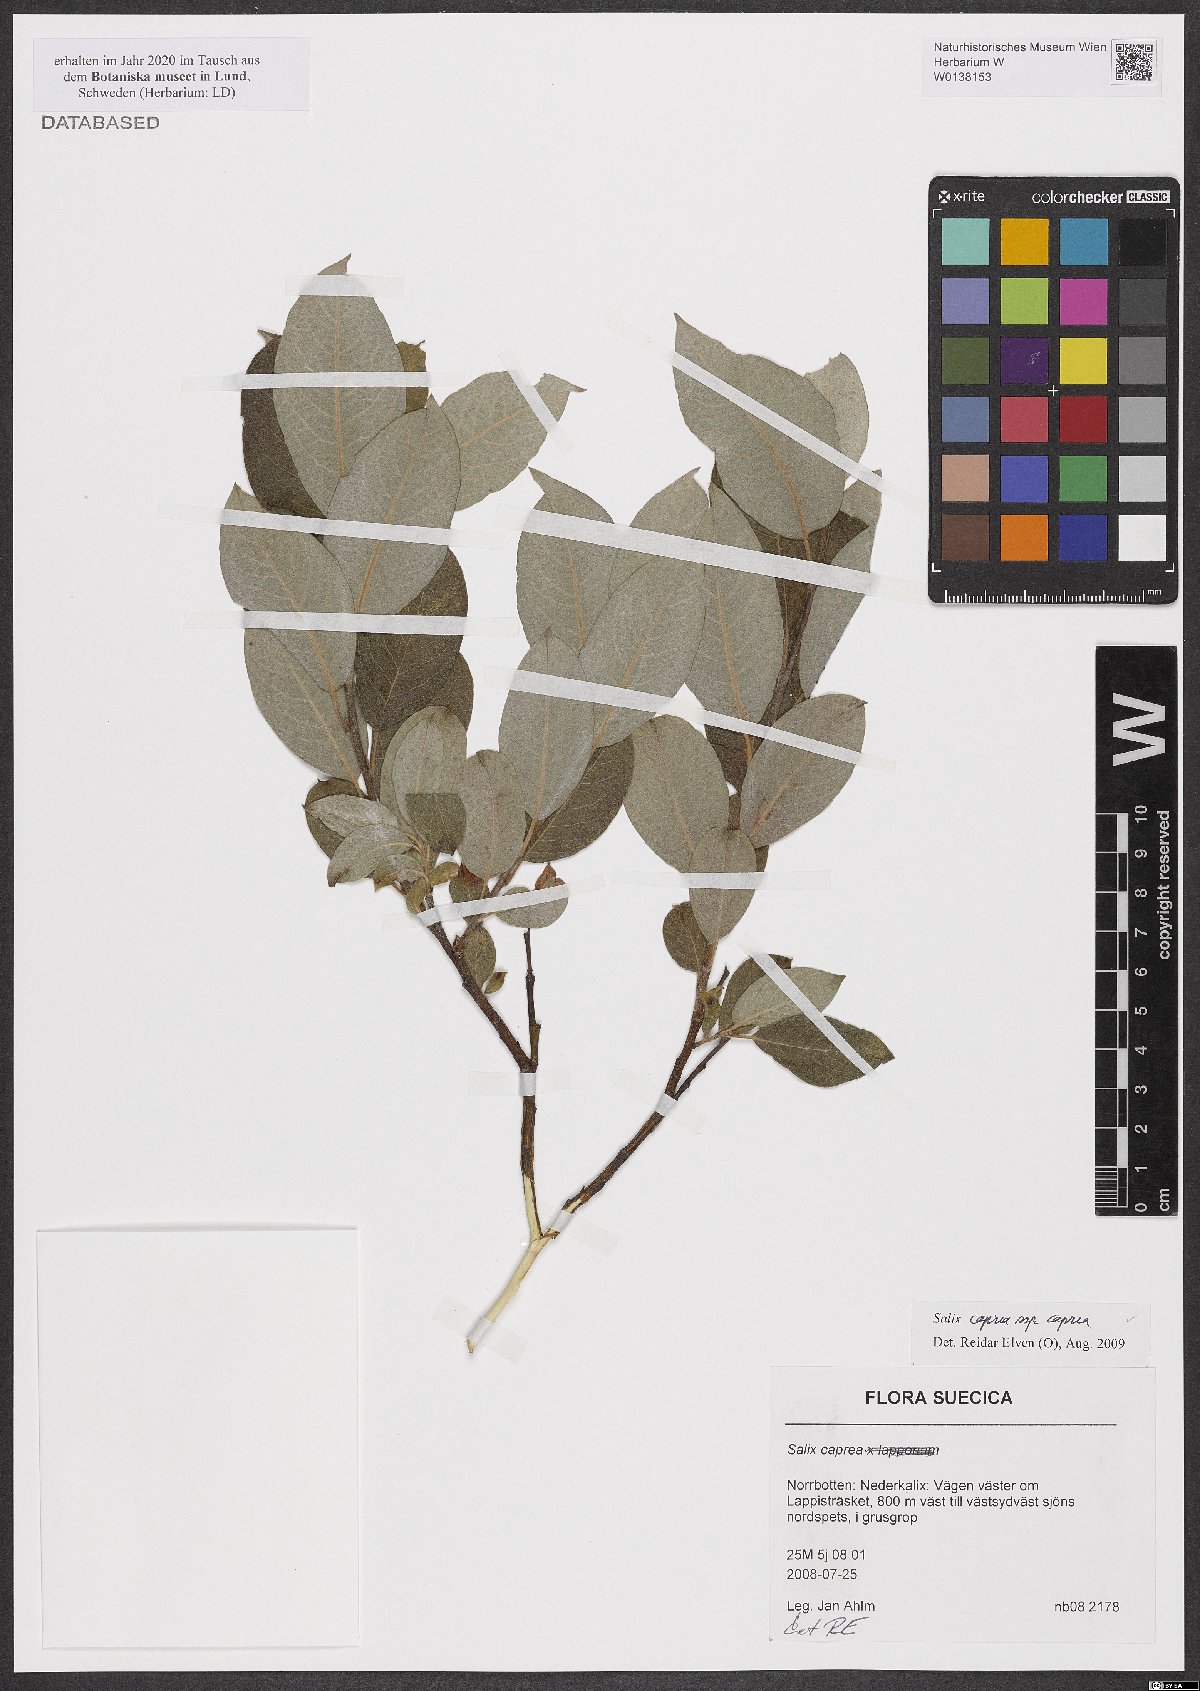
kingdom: Plantae
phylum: Tracheophyta
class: Magnoliopsida
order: Malpighiales
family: Salicaceae
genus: Salix
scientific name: Salix caprea
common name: Goat willow
